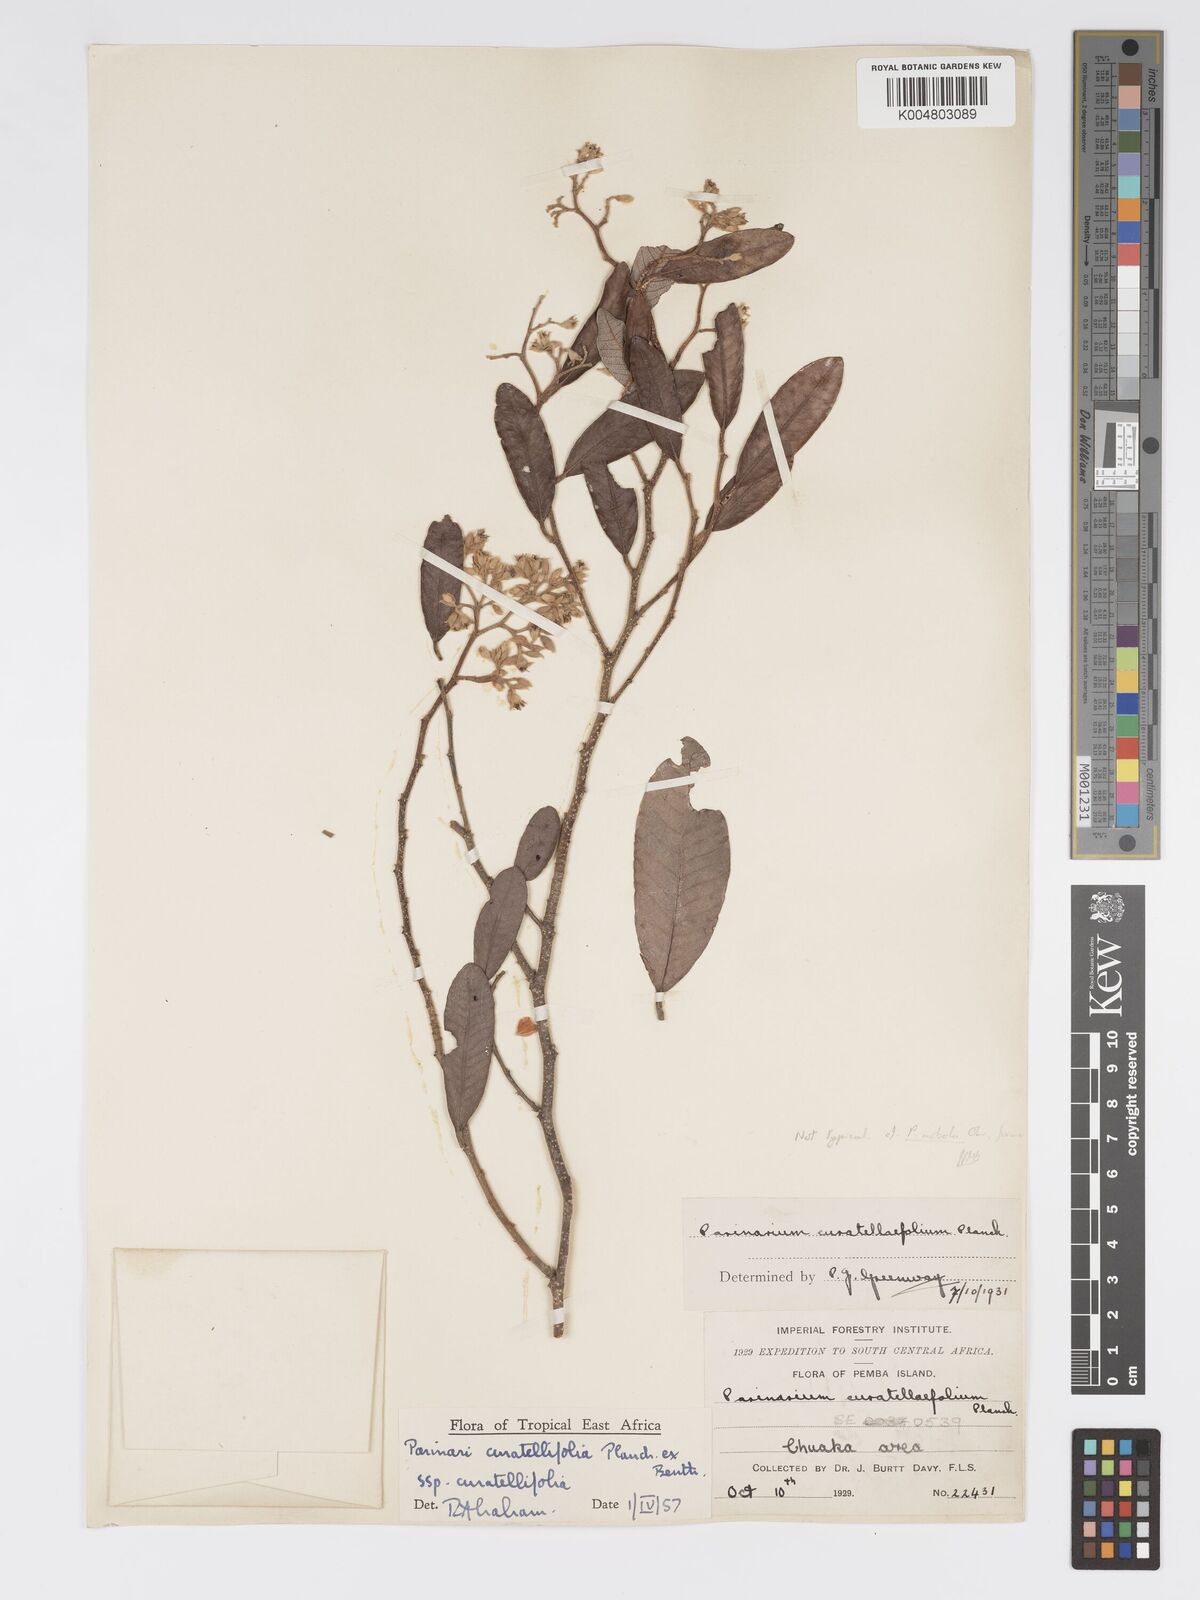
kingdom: Plantae
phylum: Tracheophyta
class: Magnoliopsida
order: Malpighiales
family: Chrysobalanaceae
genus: Parinari
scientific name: Parinari curatellifolia
